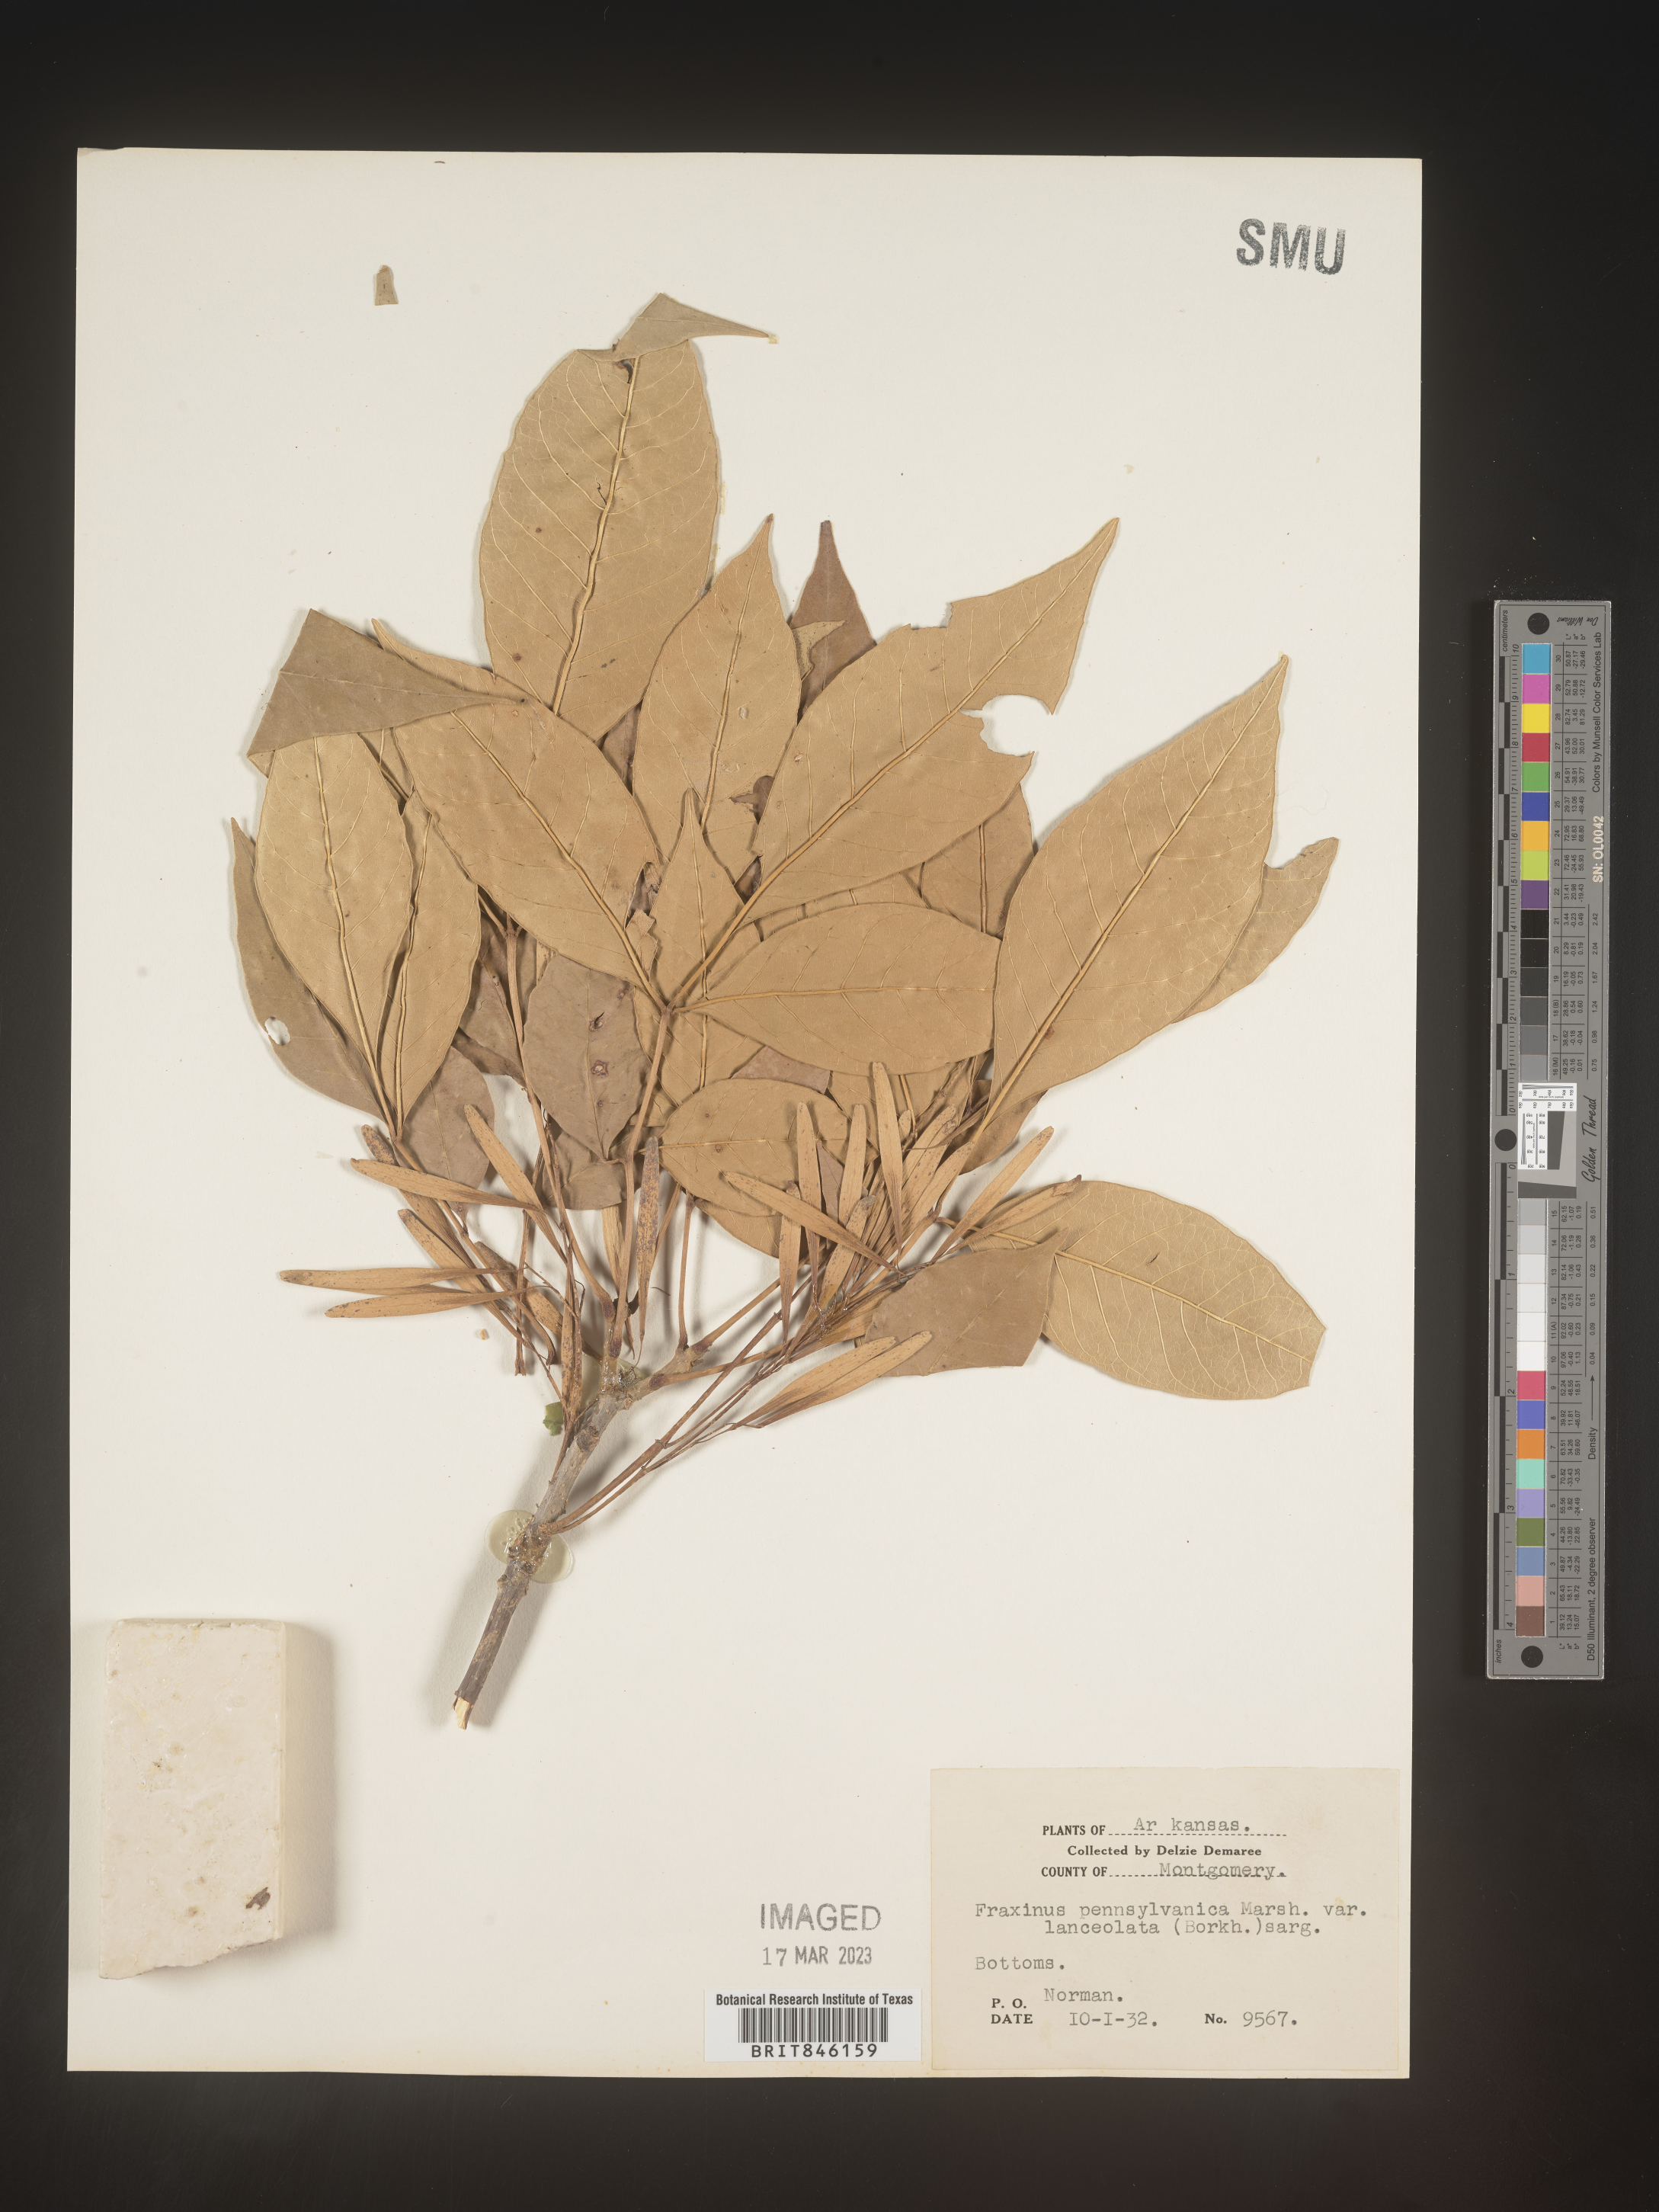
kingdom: Plantae
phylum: Tracheophyta
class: Magnoliopsida
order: Lamiales
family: Oleaceae
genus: Fraxinus
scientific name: Fraxinus pennsylvanica
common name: Green ash
